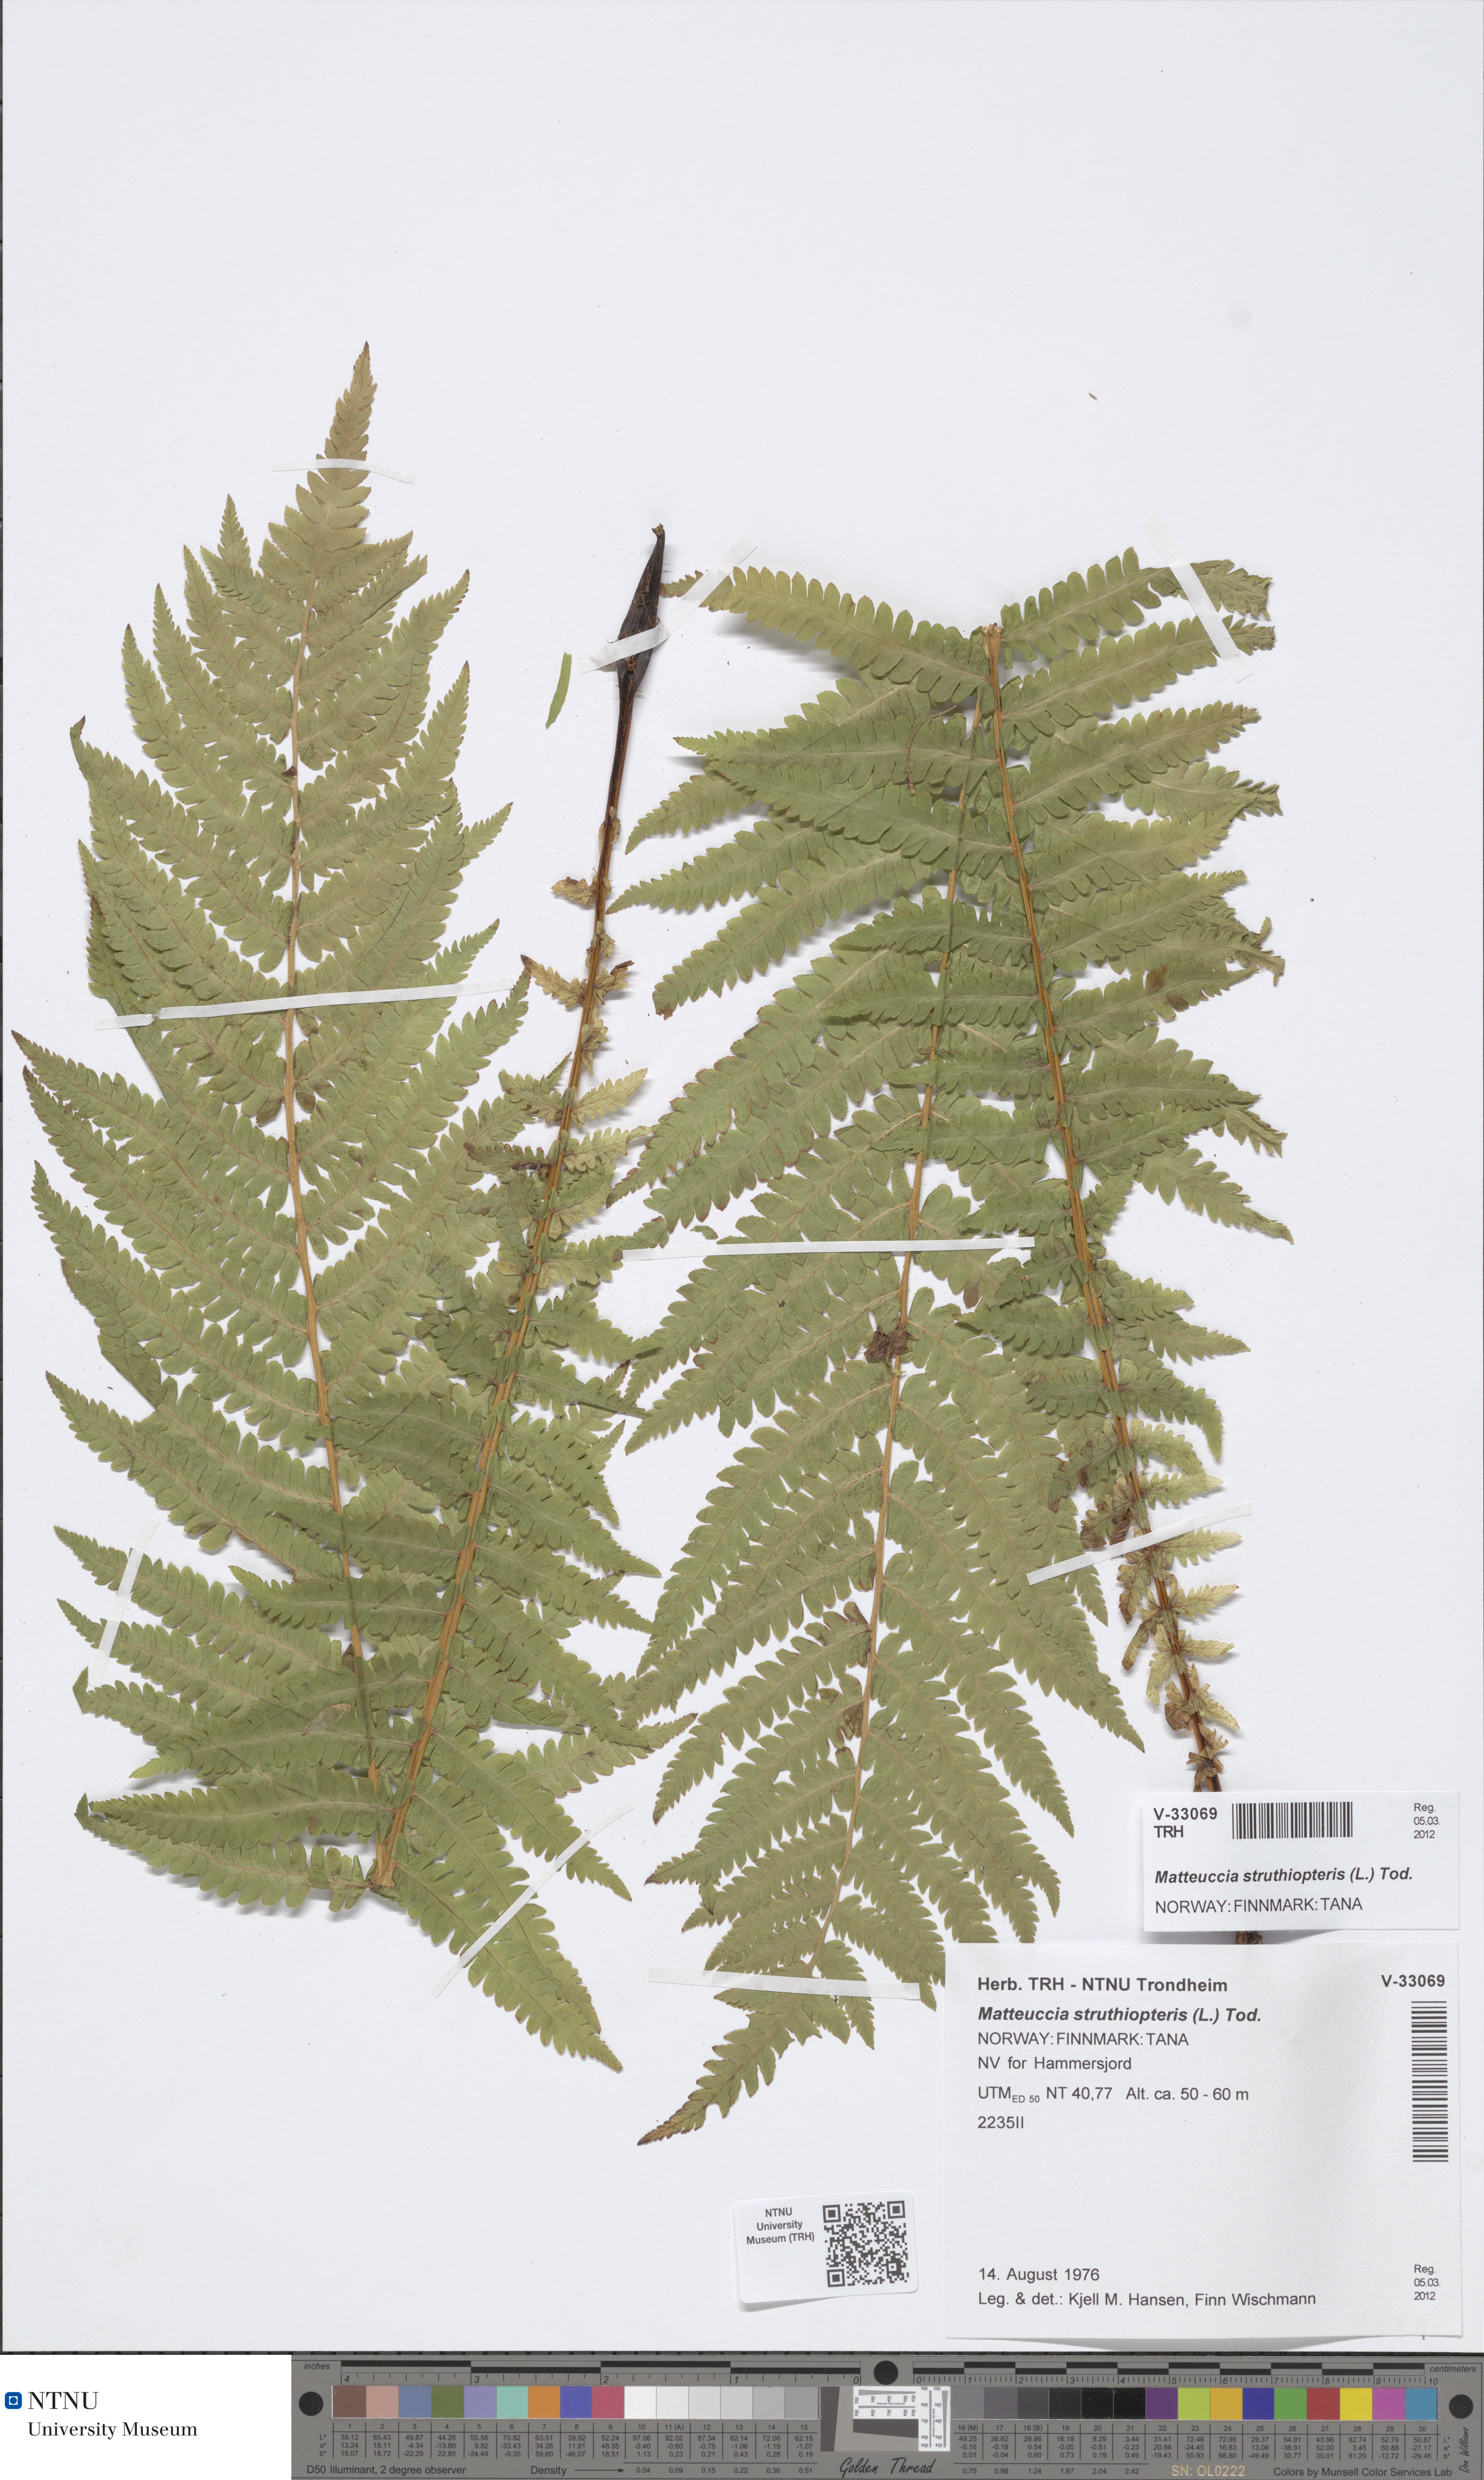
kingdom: Plantae
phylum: Tracheophyta
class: Polypodiopsida
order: Polypodiales
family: Onocleaceae
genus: Matteuccia
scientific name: Matteuccia struthiopteris
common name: Ostrich fern
